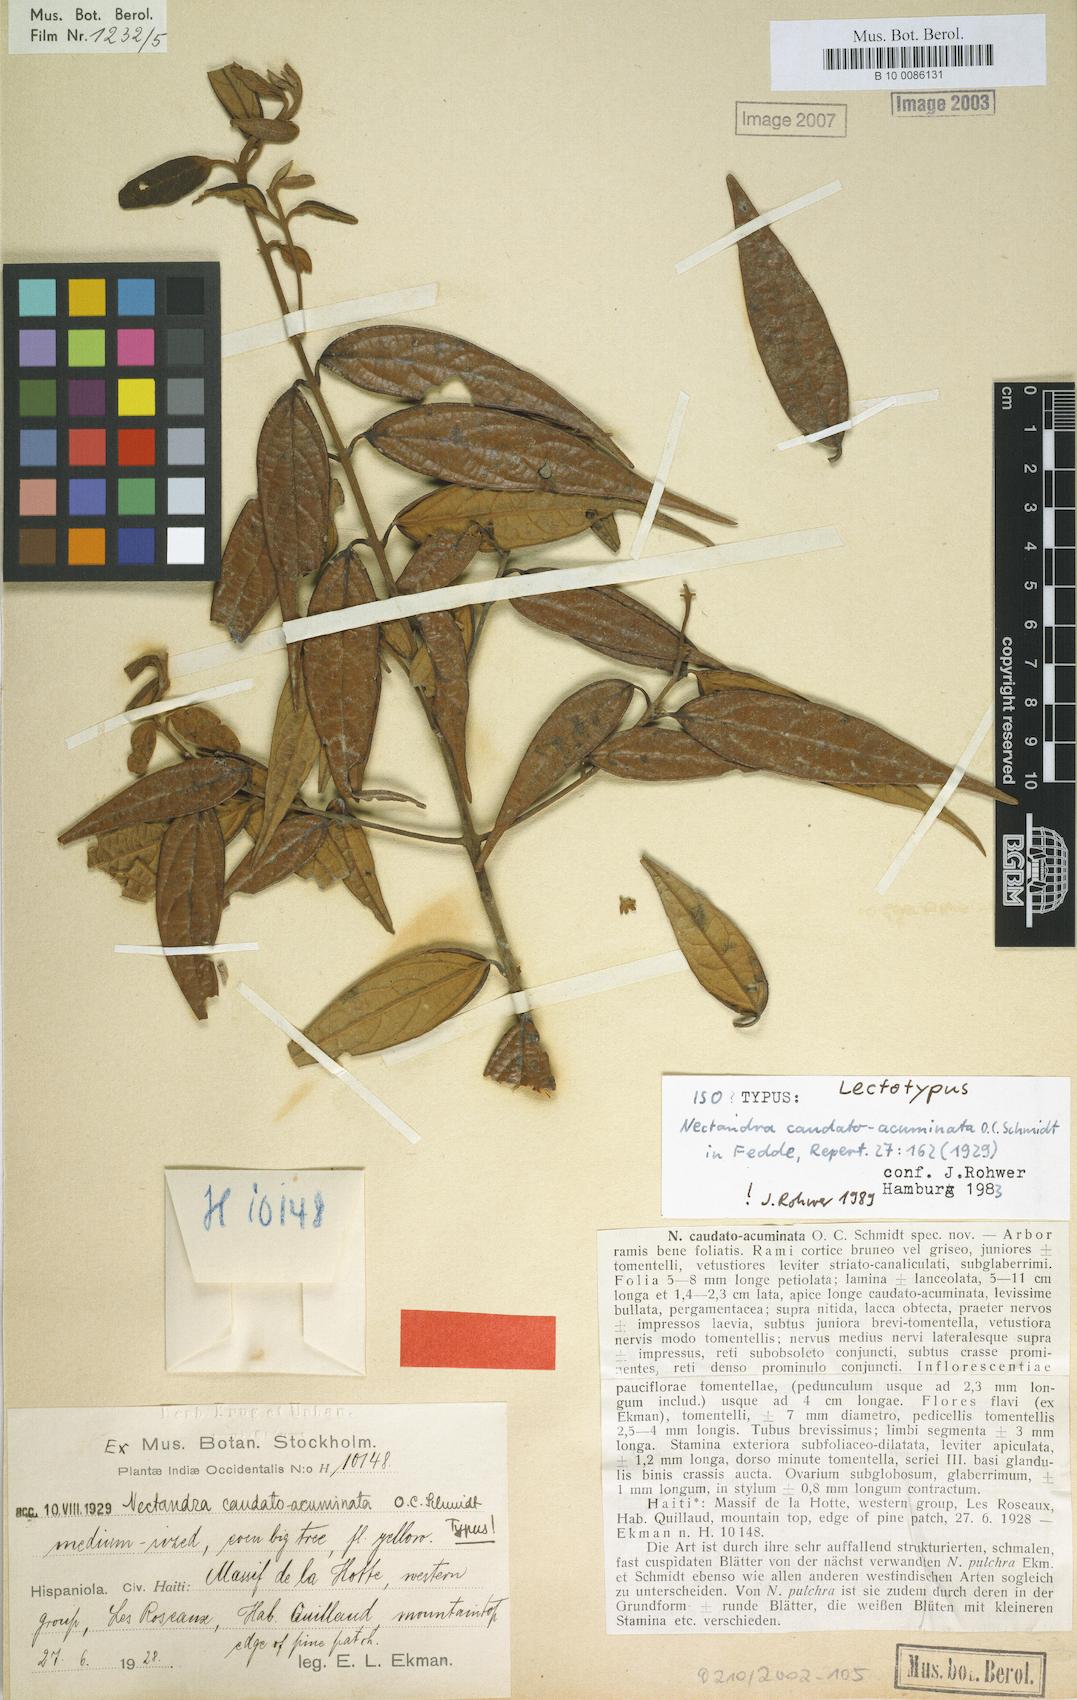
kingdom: Plantae
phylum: Tracheophyta
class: Magnoliopsida
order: Laurales
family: Lauraceae
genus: Nectandra
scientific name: Nectandra caudatoacuminata
